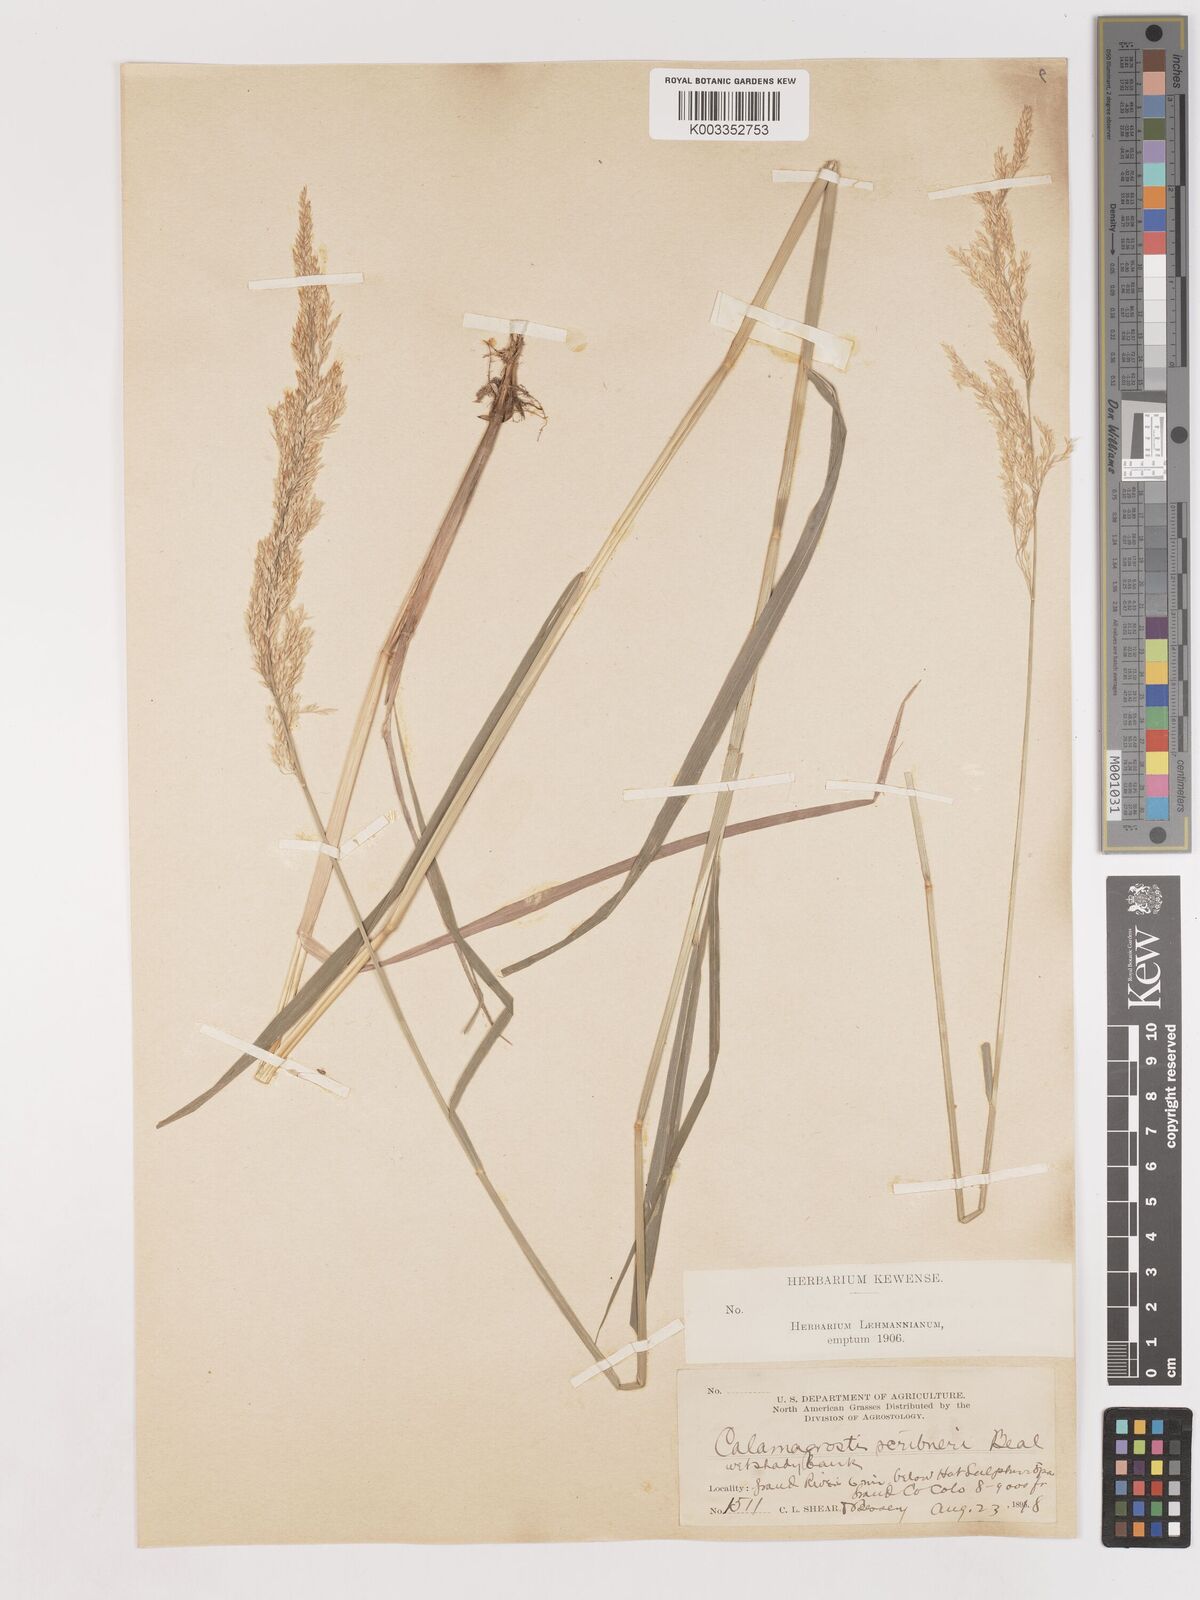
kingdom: Plantae
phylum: Tracheophyta
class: Liliopsida
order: Poales
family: Poaceae
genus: Calamagrostis
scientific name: Calamagrostis canadensis
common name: Canada bluejoint
